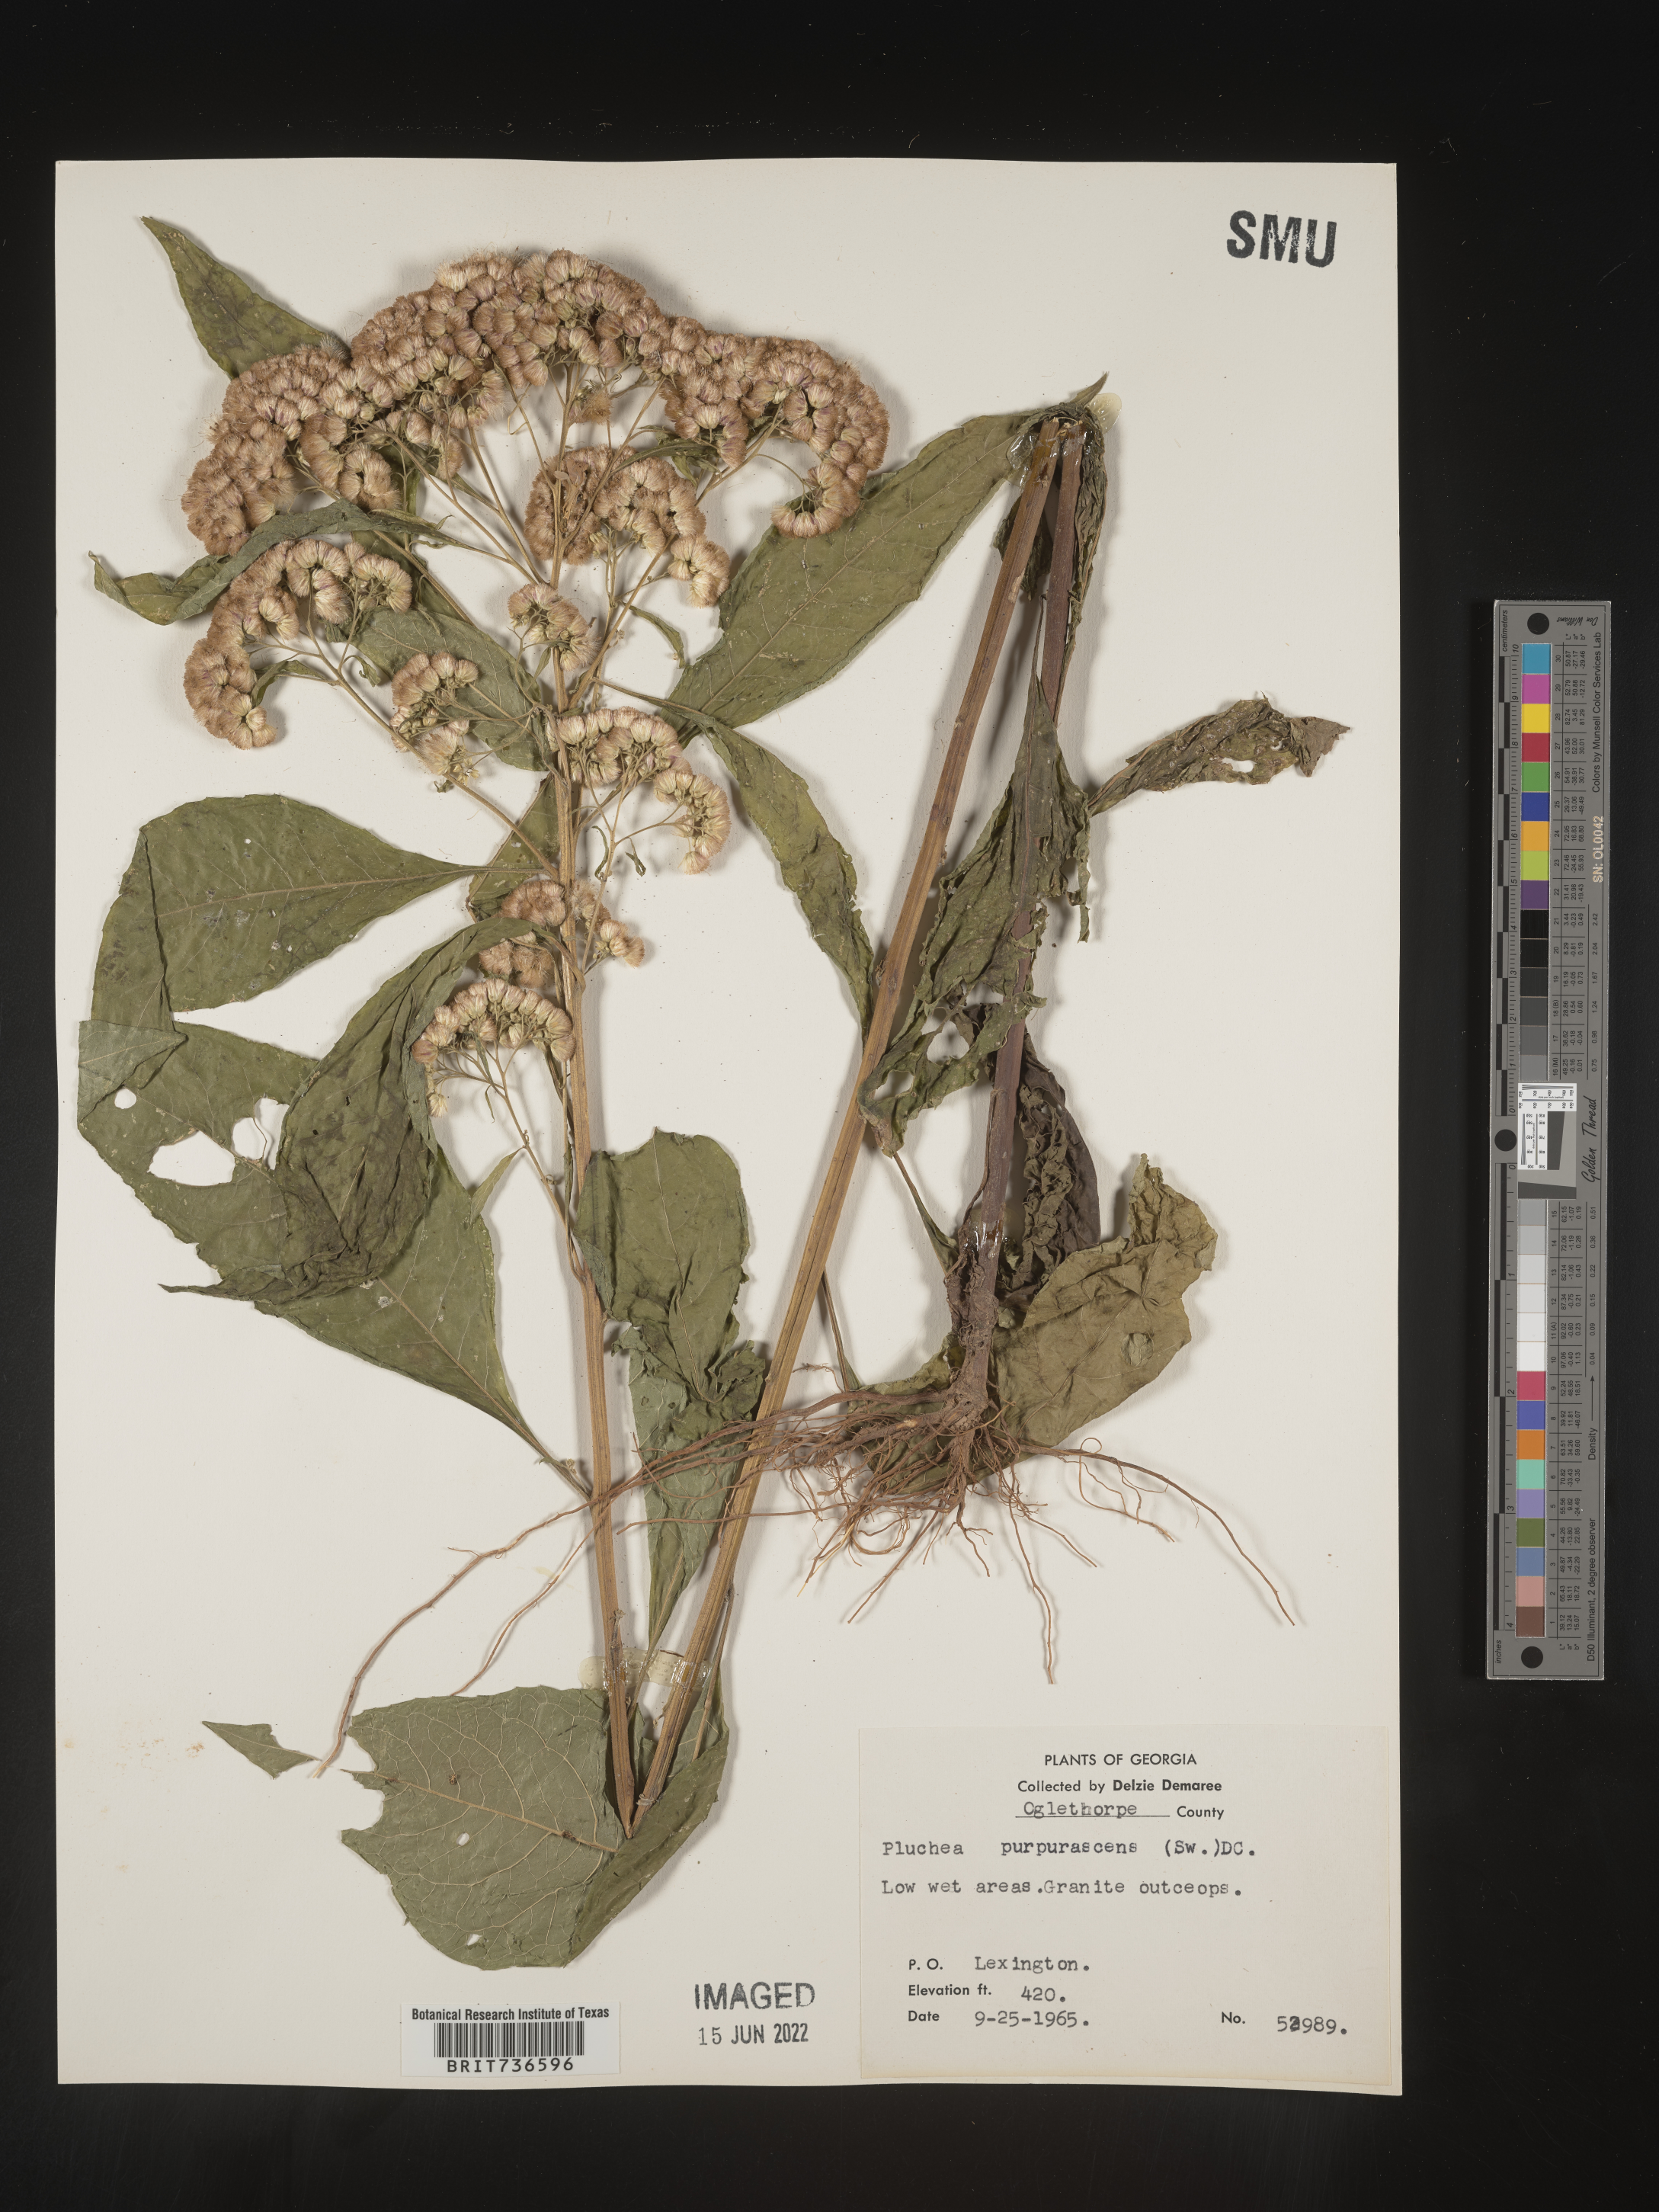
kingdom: Plantae
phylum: Tracheophyta
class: Magnoliopsida
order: Asterales
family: Asteraceae
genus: Pluchea
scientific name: Pluchea camphorata
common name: Camphor pluchea
